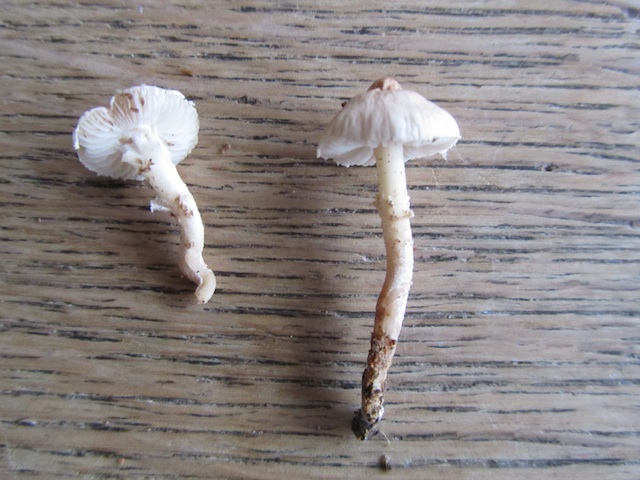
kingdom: Fungi
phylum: Basidiomycota
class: Agaricomycetes
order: Agaricales
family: Tricholomataceae
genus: Cystoderma
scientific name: Cystoderma carcharias
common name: rødgrå grynhat
